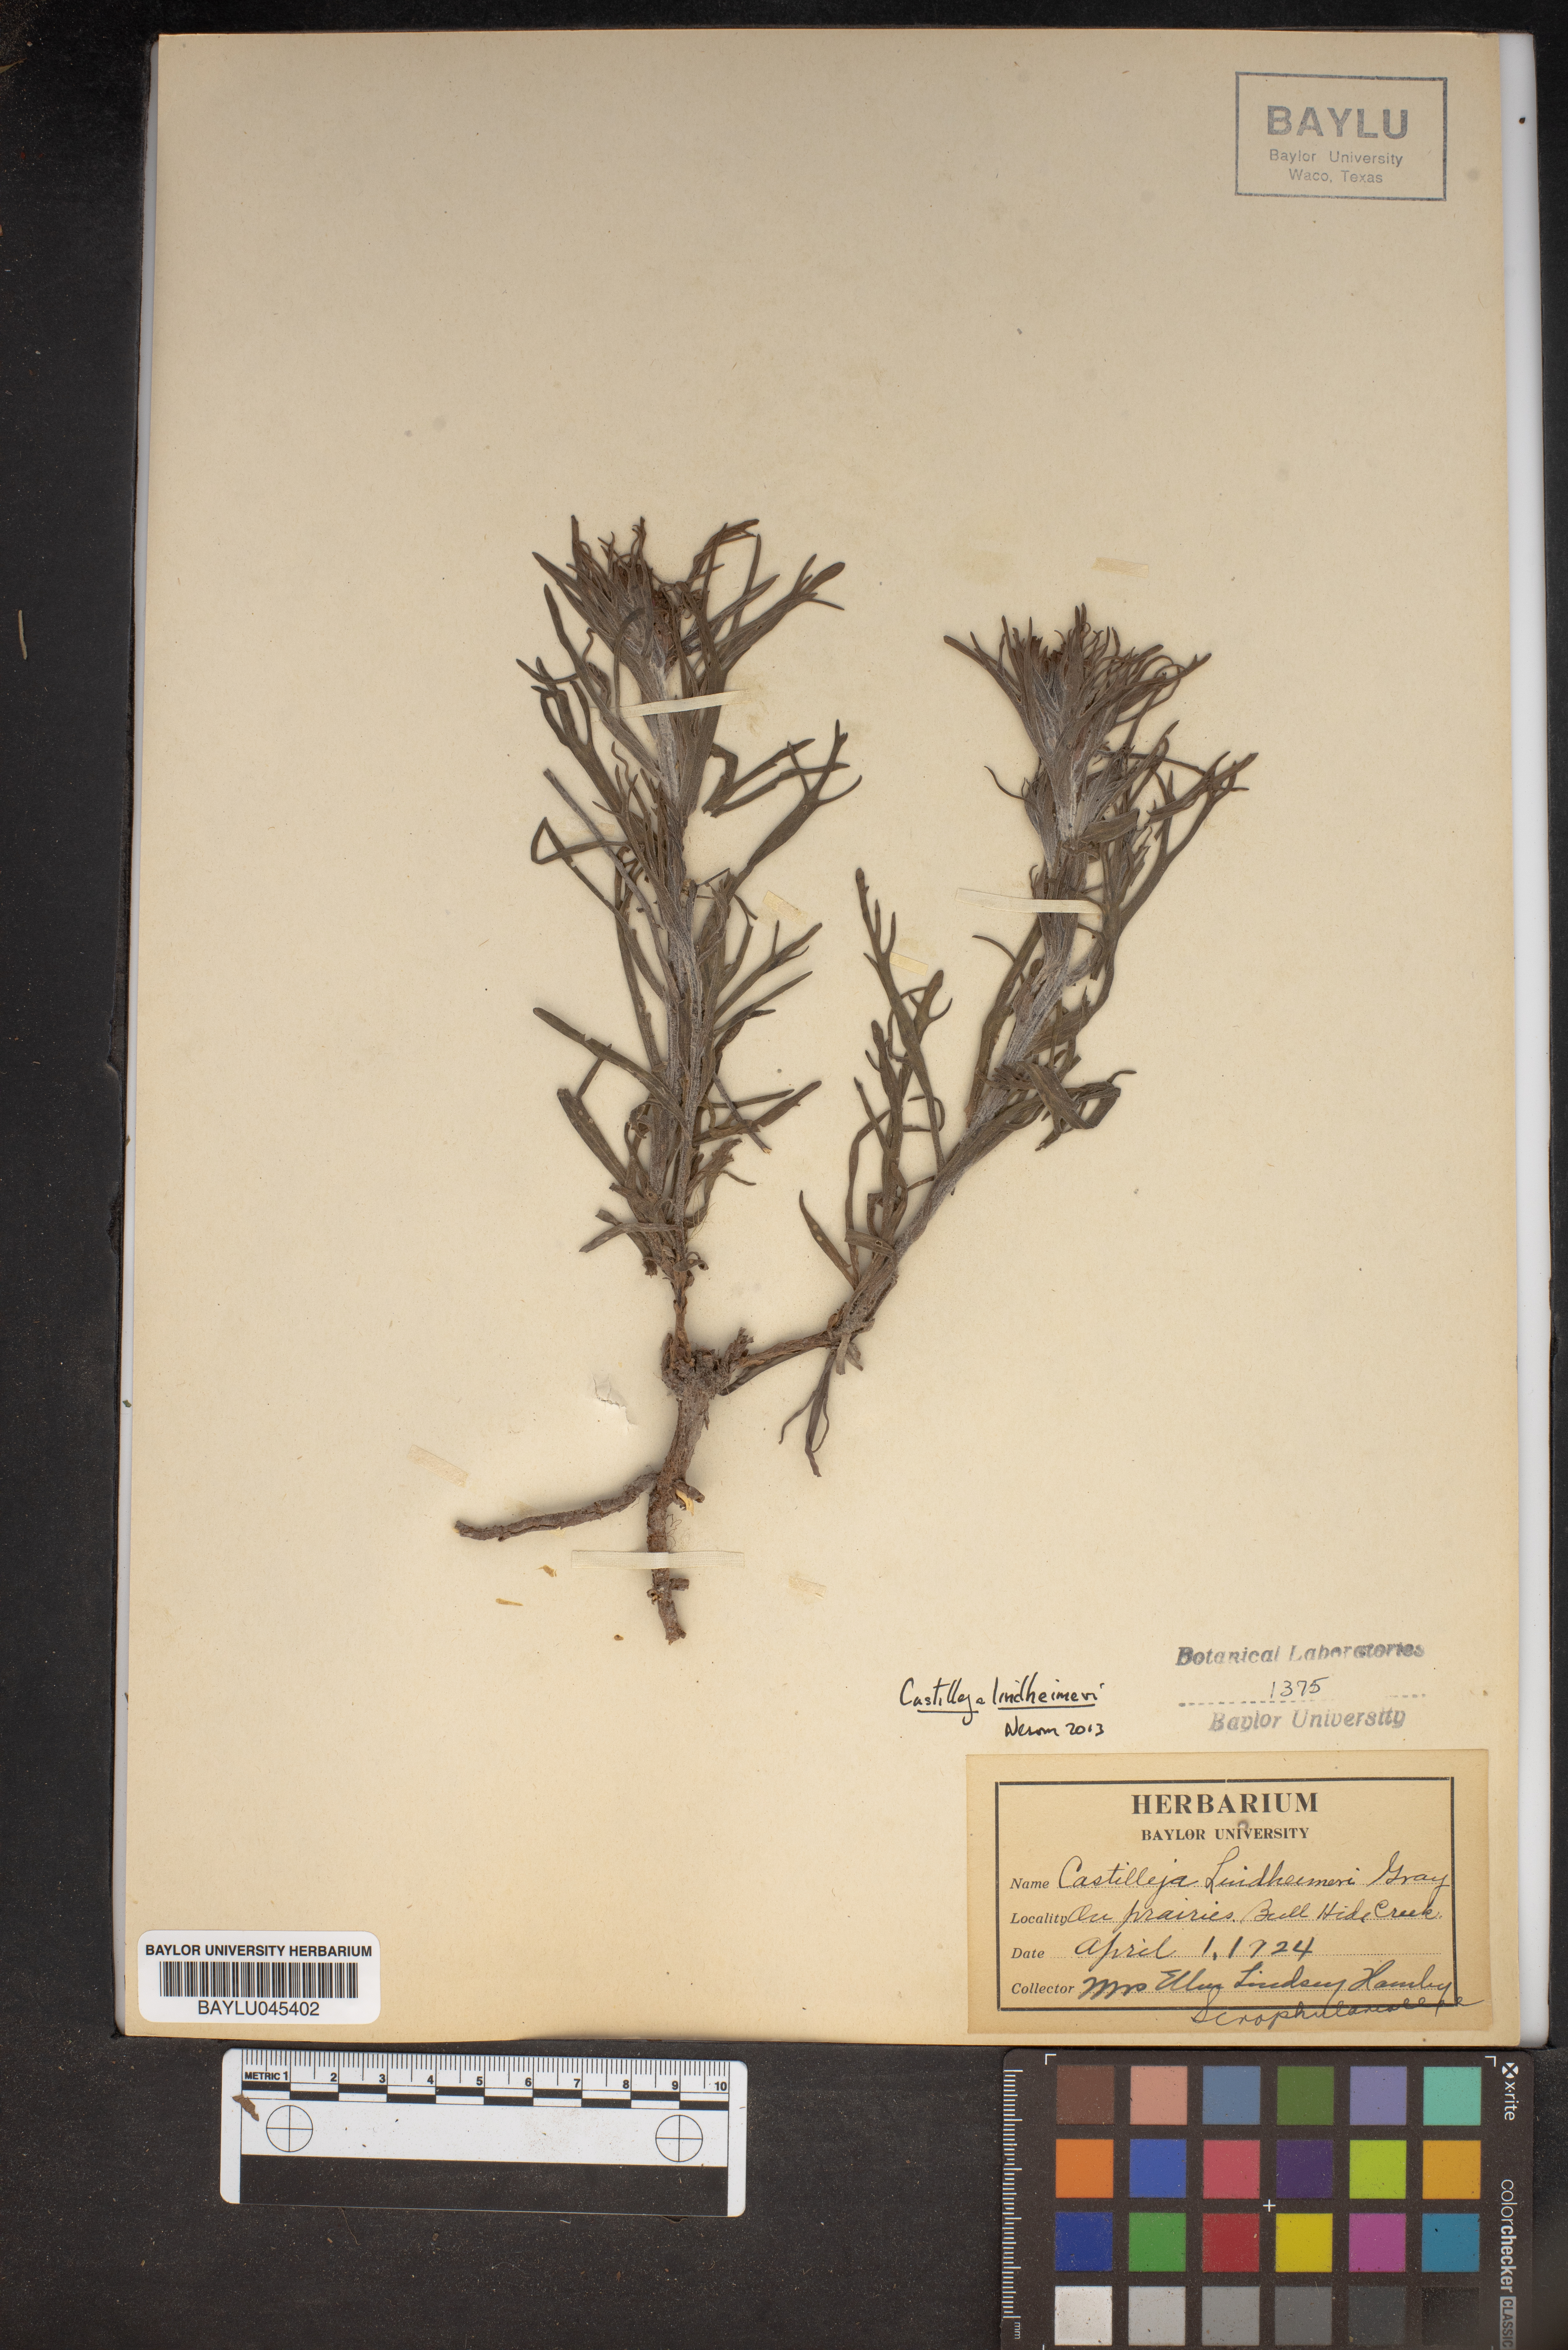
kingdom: Plantae
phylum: Tracheophyta
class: Magnoliopsida
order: Lamiales
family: Orobanchaceae
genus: Castilleja
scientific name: Castilleja lindheimeri
